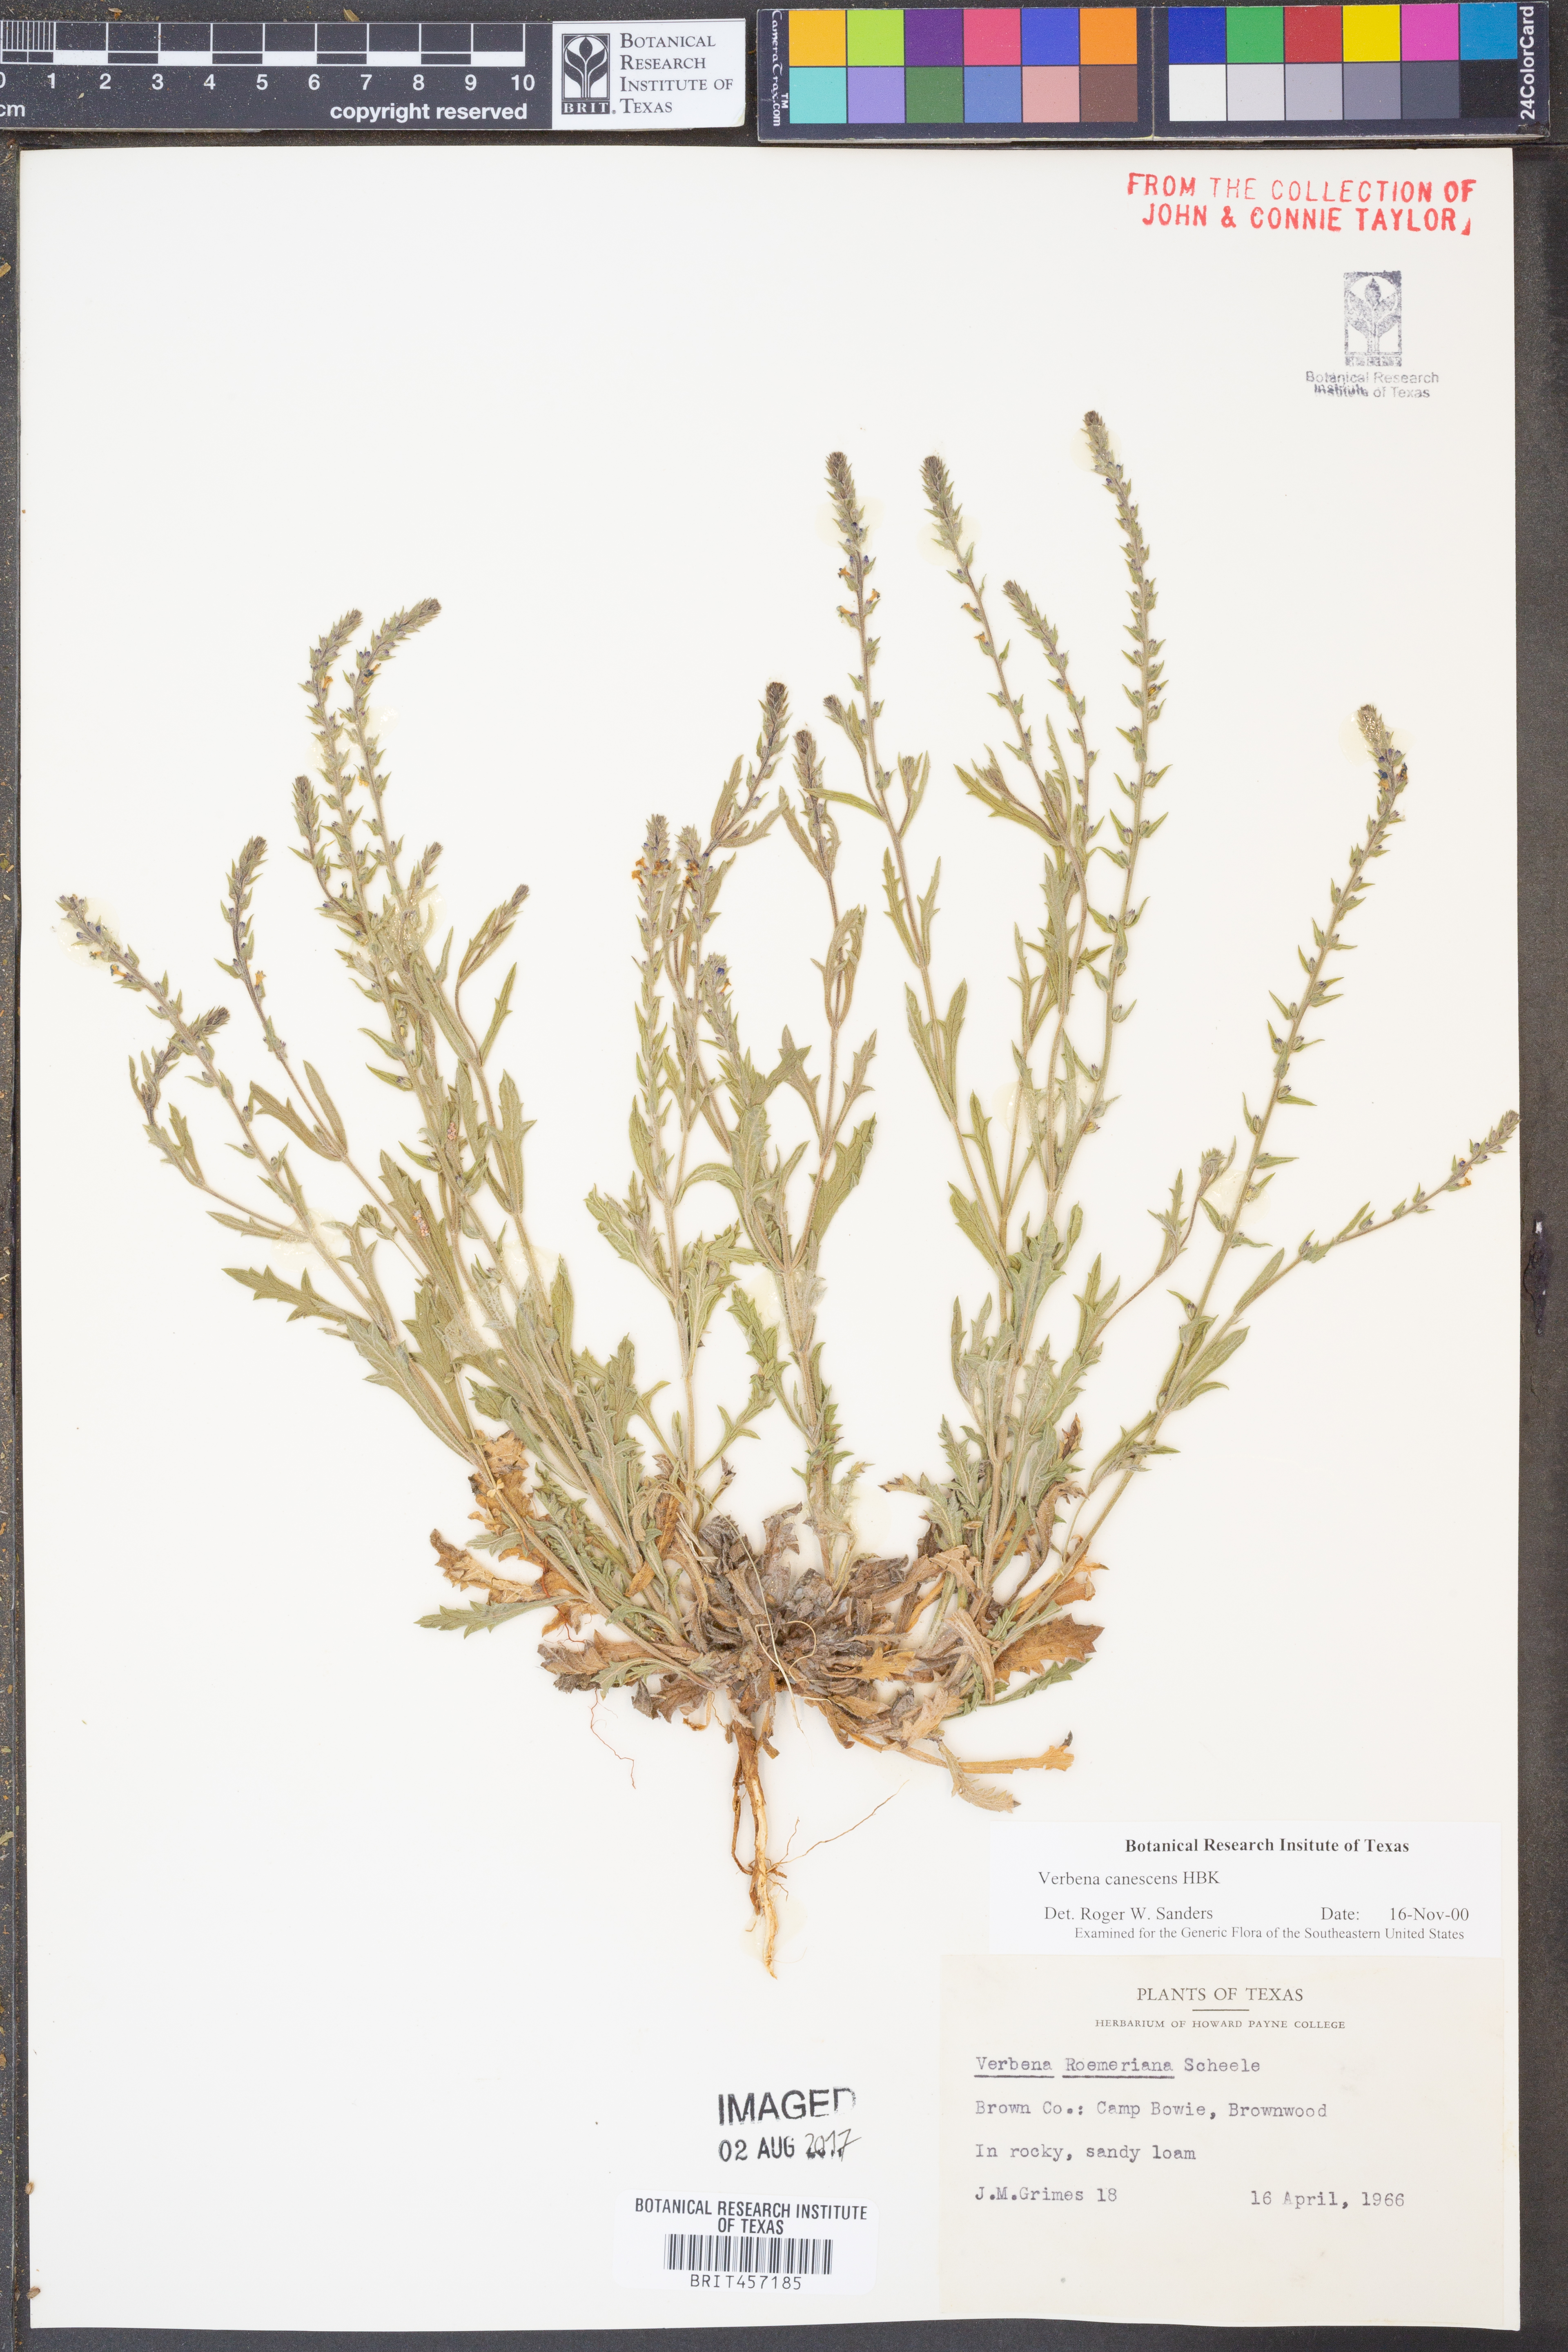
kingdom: Plantae
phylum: Tracheophyta
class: Magnoliopsida
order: Lamiales
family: Verbenaceae
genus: Verbena
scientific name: Verbena canescens
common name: Gray vervain
